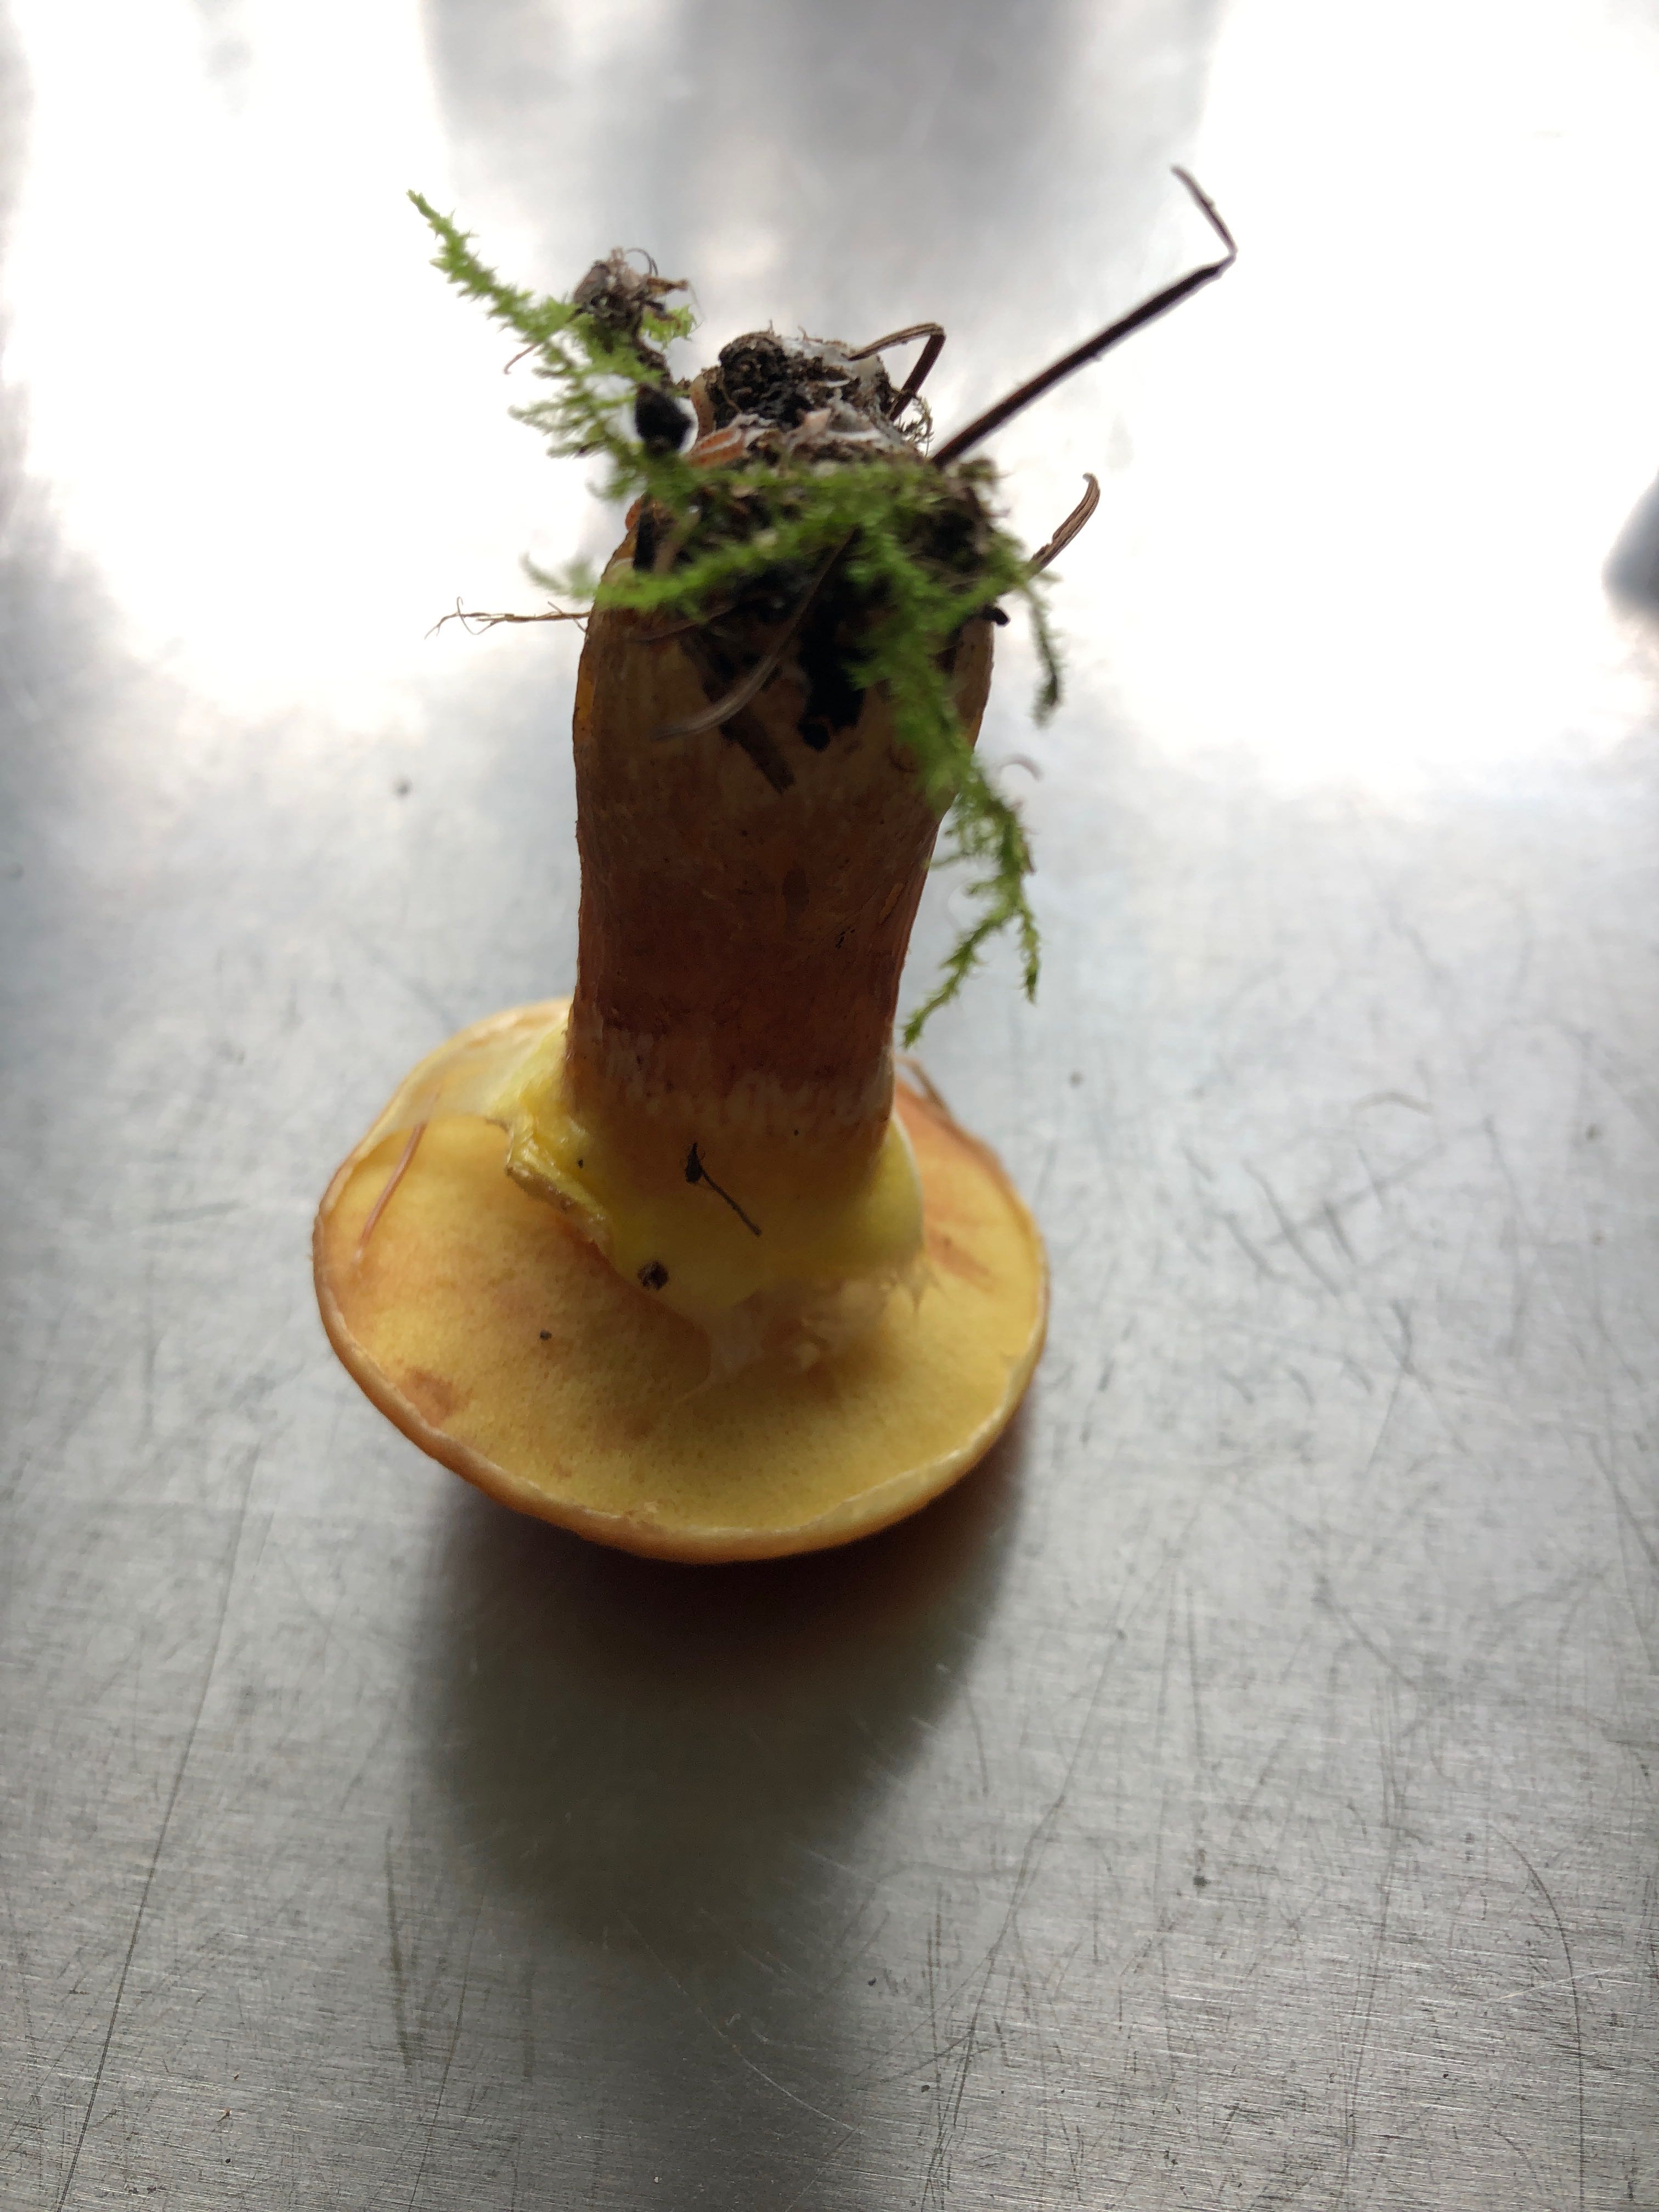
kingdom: Fungi
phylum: Basidiomycota
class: Agaricomycetes
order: Boletales
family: Suillaceae
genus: Suillus
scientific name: Suillus grevillei
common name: lærke-slimrørhat
